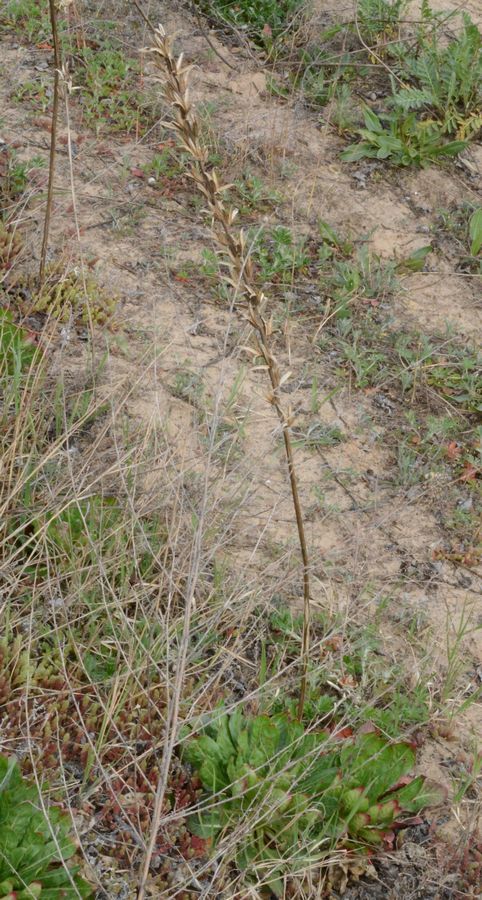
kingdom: Plantae
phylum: Tracheophyta
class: Magnoliopsida
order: Myrtales
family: Onagraceae
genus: Oenothera
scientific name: Oenothera
